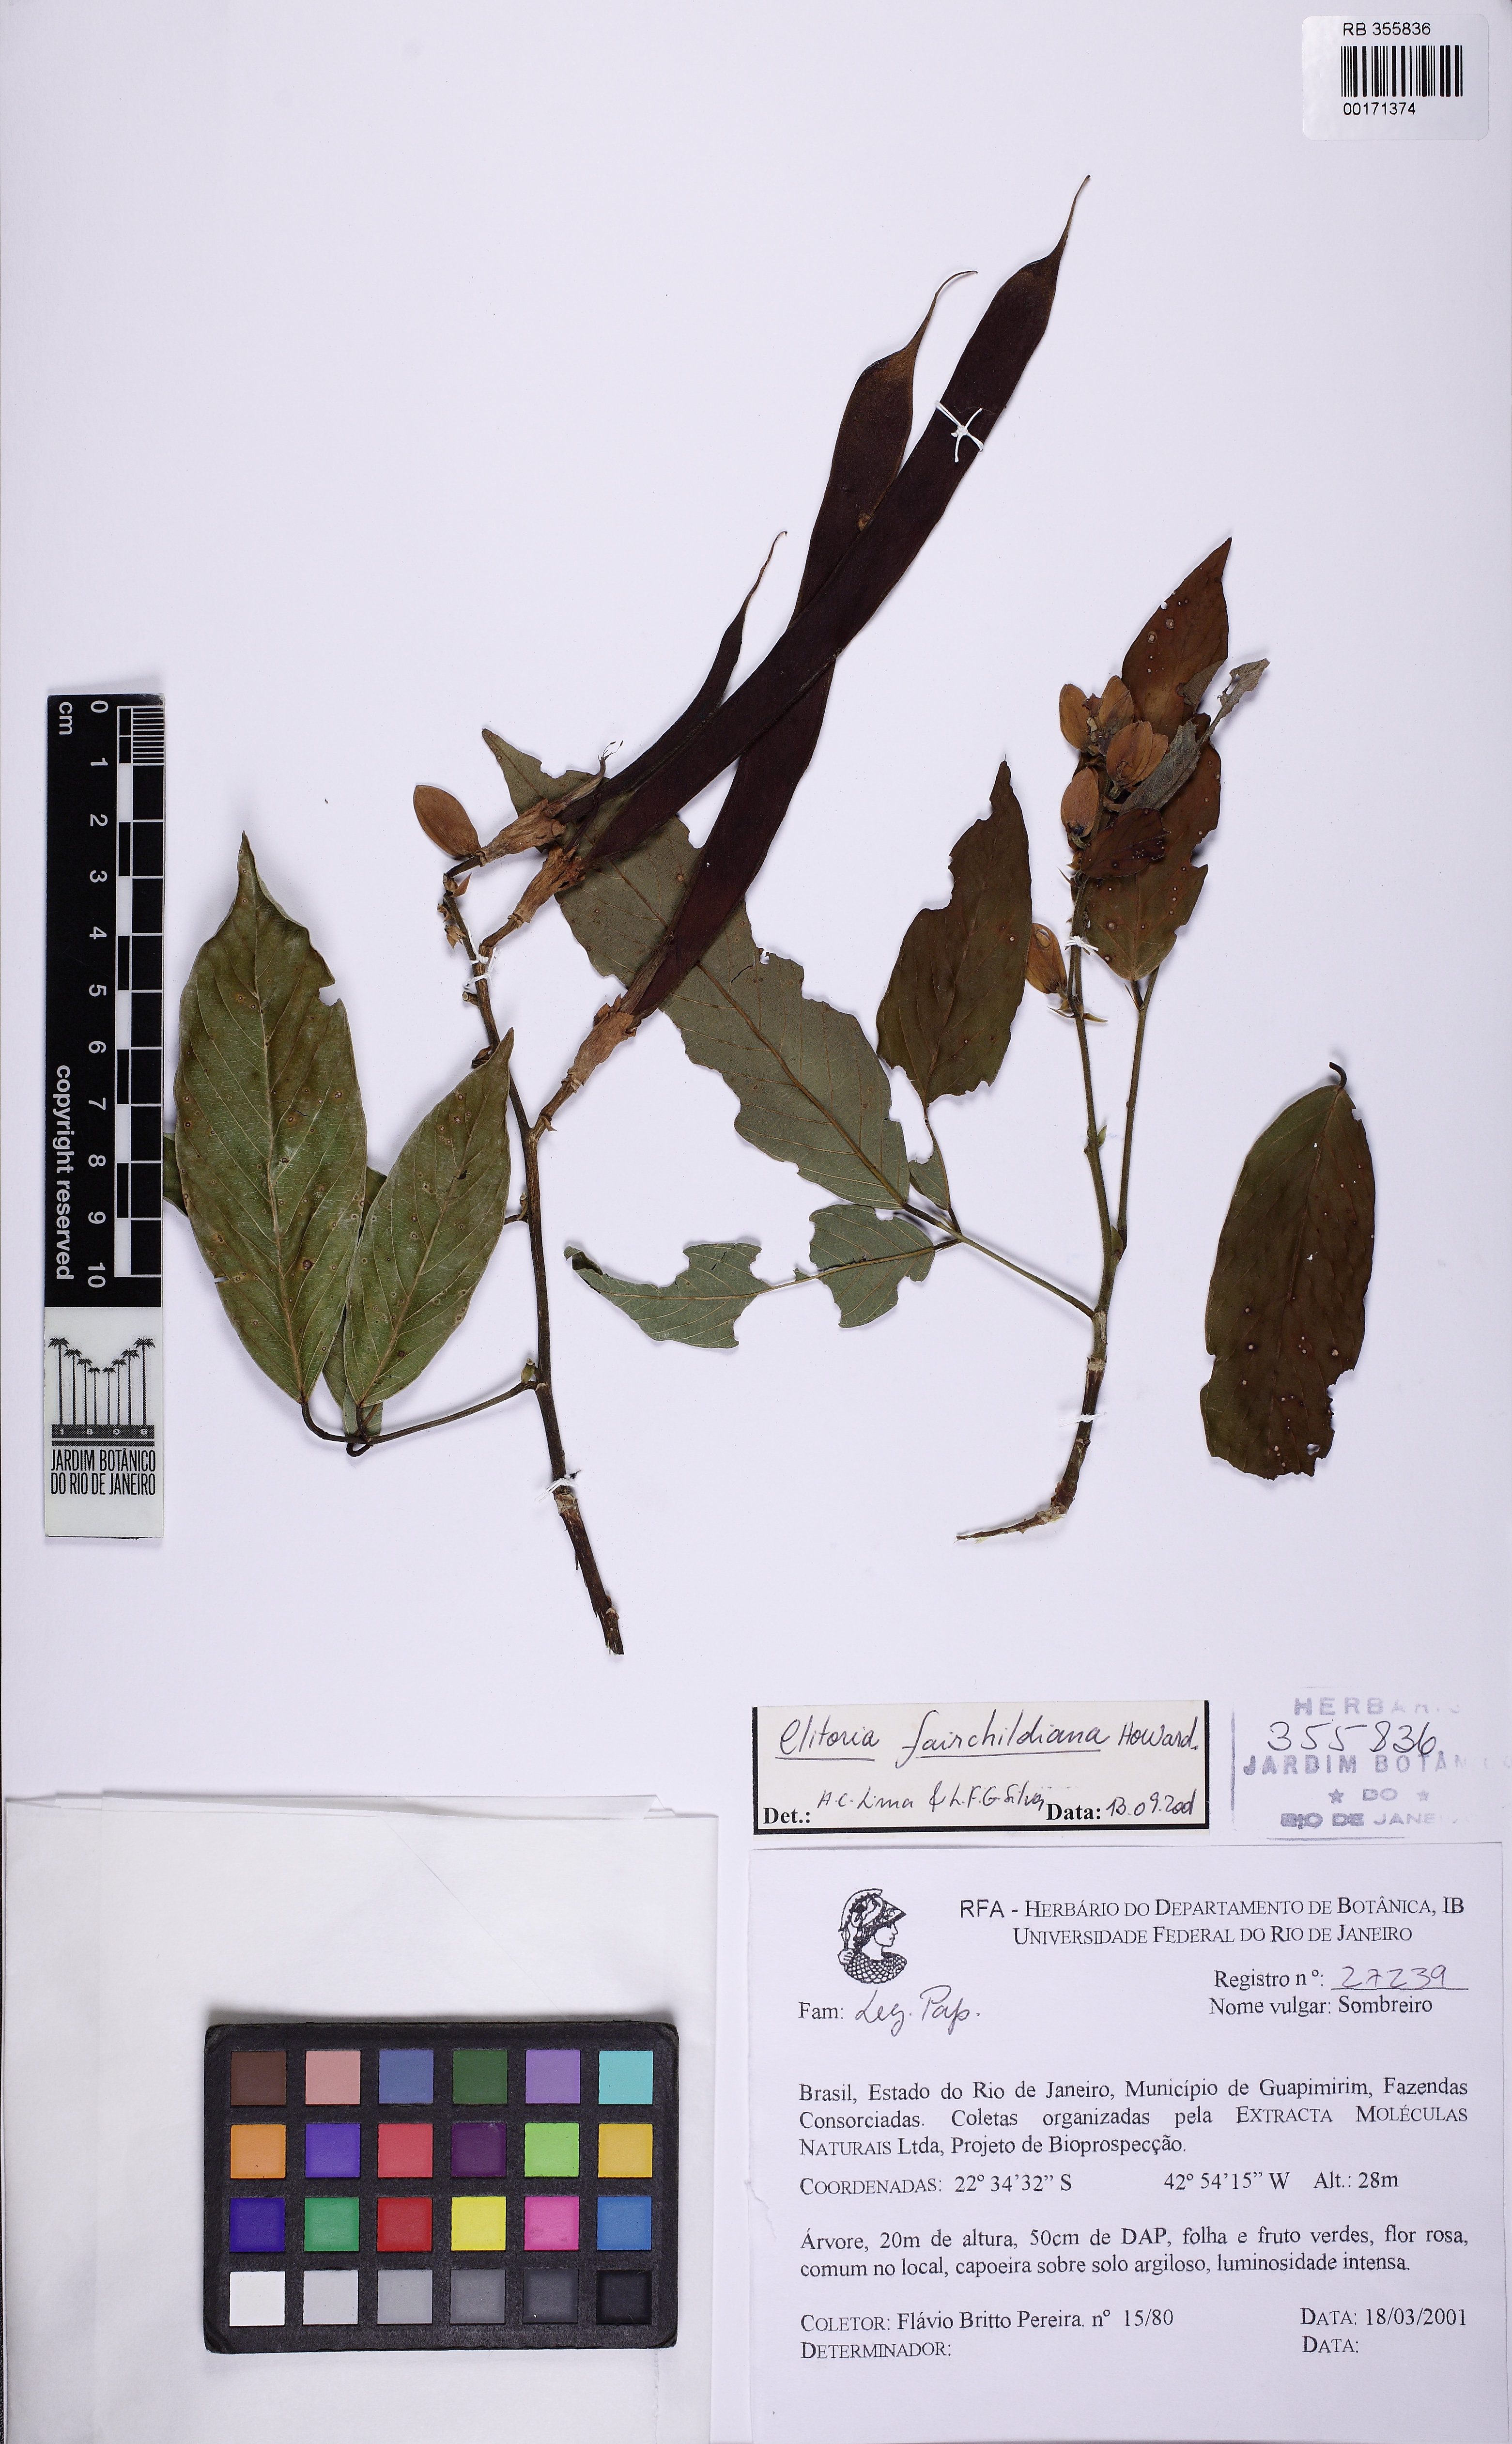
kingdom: Plantae
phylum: Tracheophyta
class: Magnoliopsida
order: Fabales
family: Fabaceae
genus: Clitoria
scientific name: Clitoria fairchildiana
